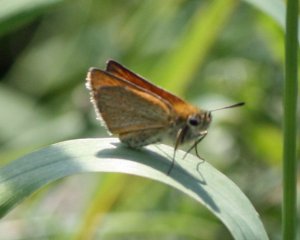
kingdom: Animalia
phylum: Arthropoda
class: Insecta
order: Lepidoptera
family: Hesperiidae
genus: Thymelicus
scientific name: Thymelicus lineola
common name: European Skipper
